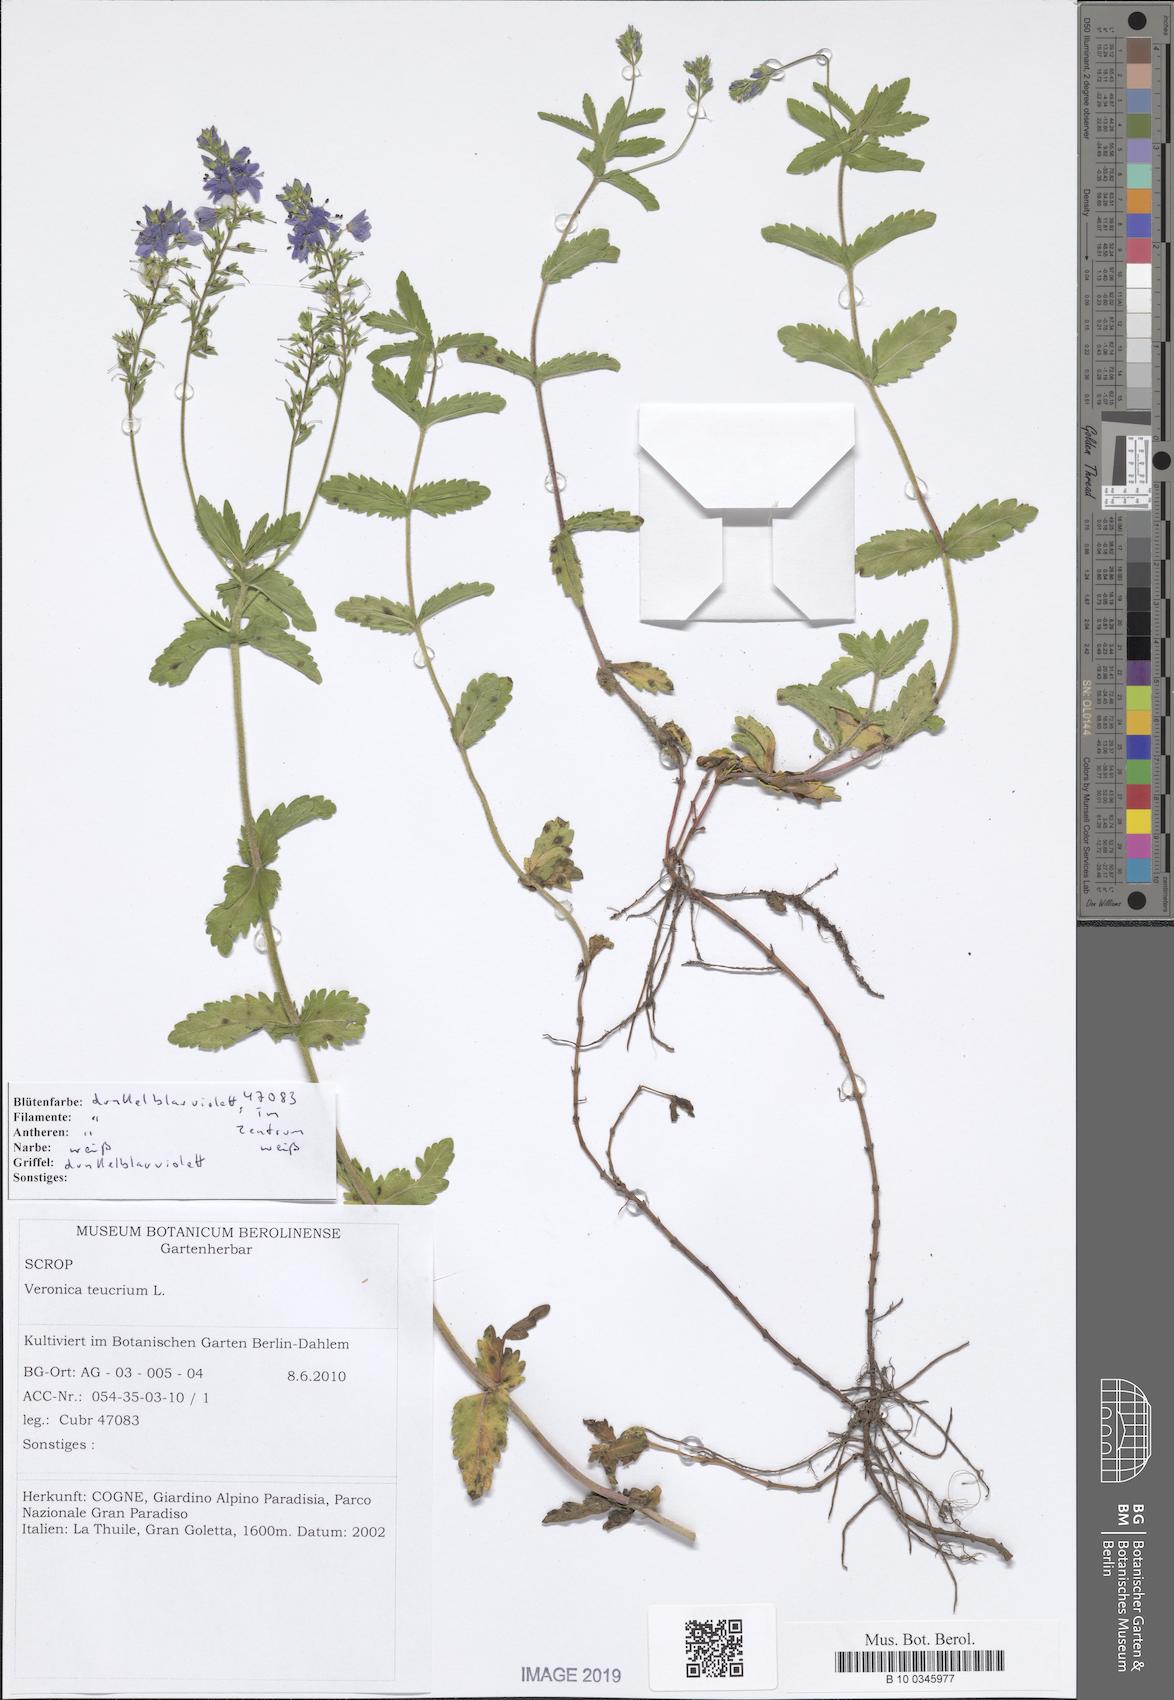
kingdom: Plantae
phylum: Tracheophyta
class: Magnoliopsida
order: Lamiales
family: Plantaginaceae
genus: Veronica
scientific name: Veronica teucrium
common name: Large speedwell
